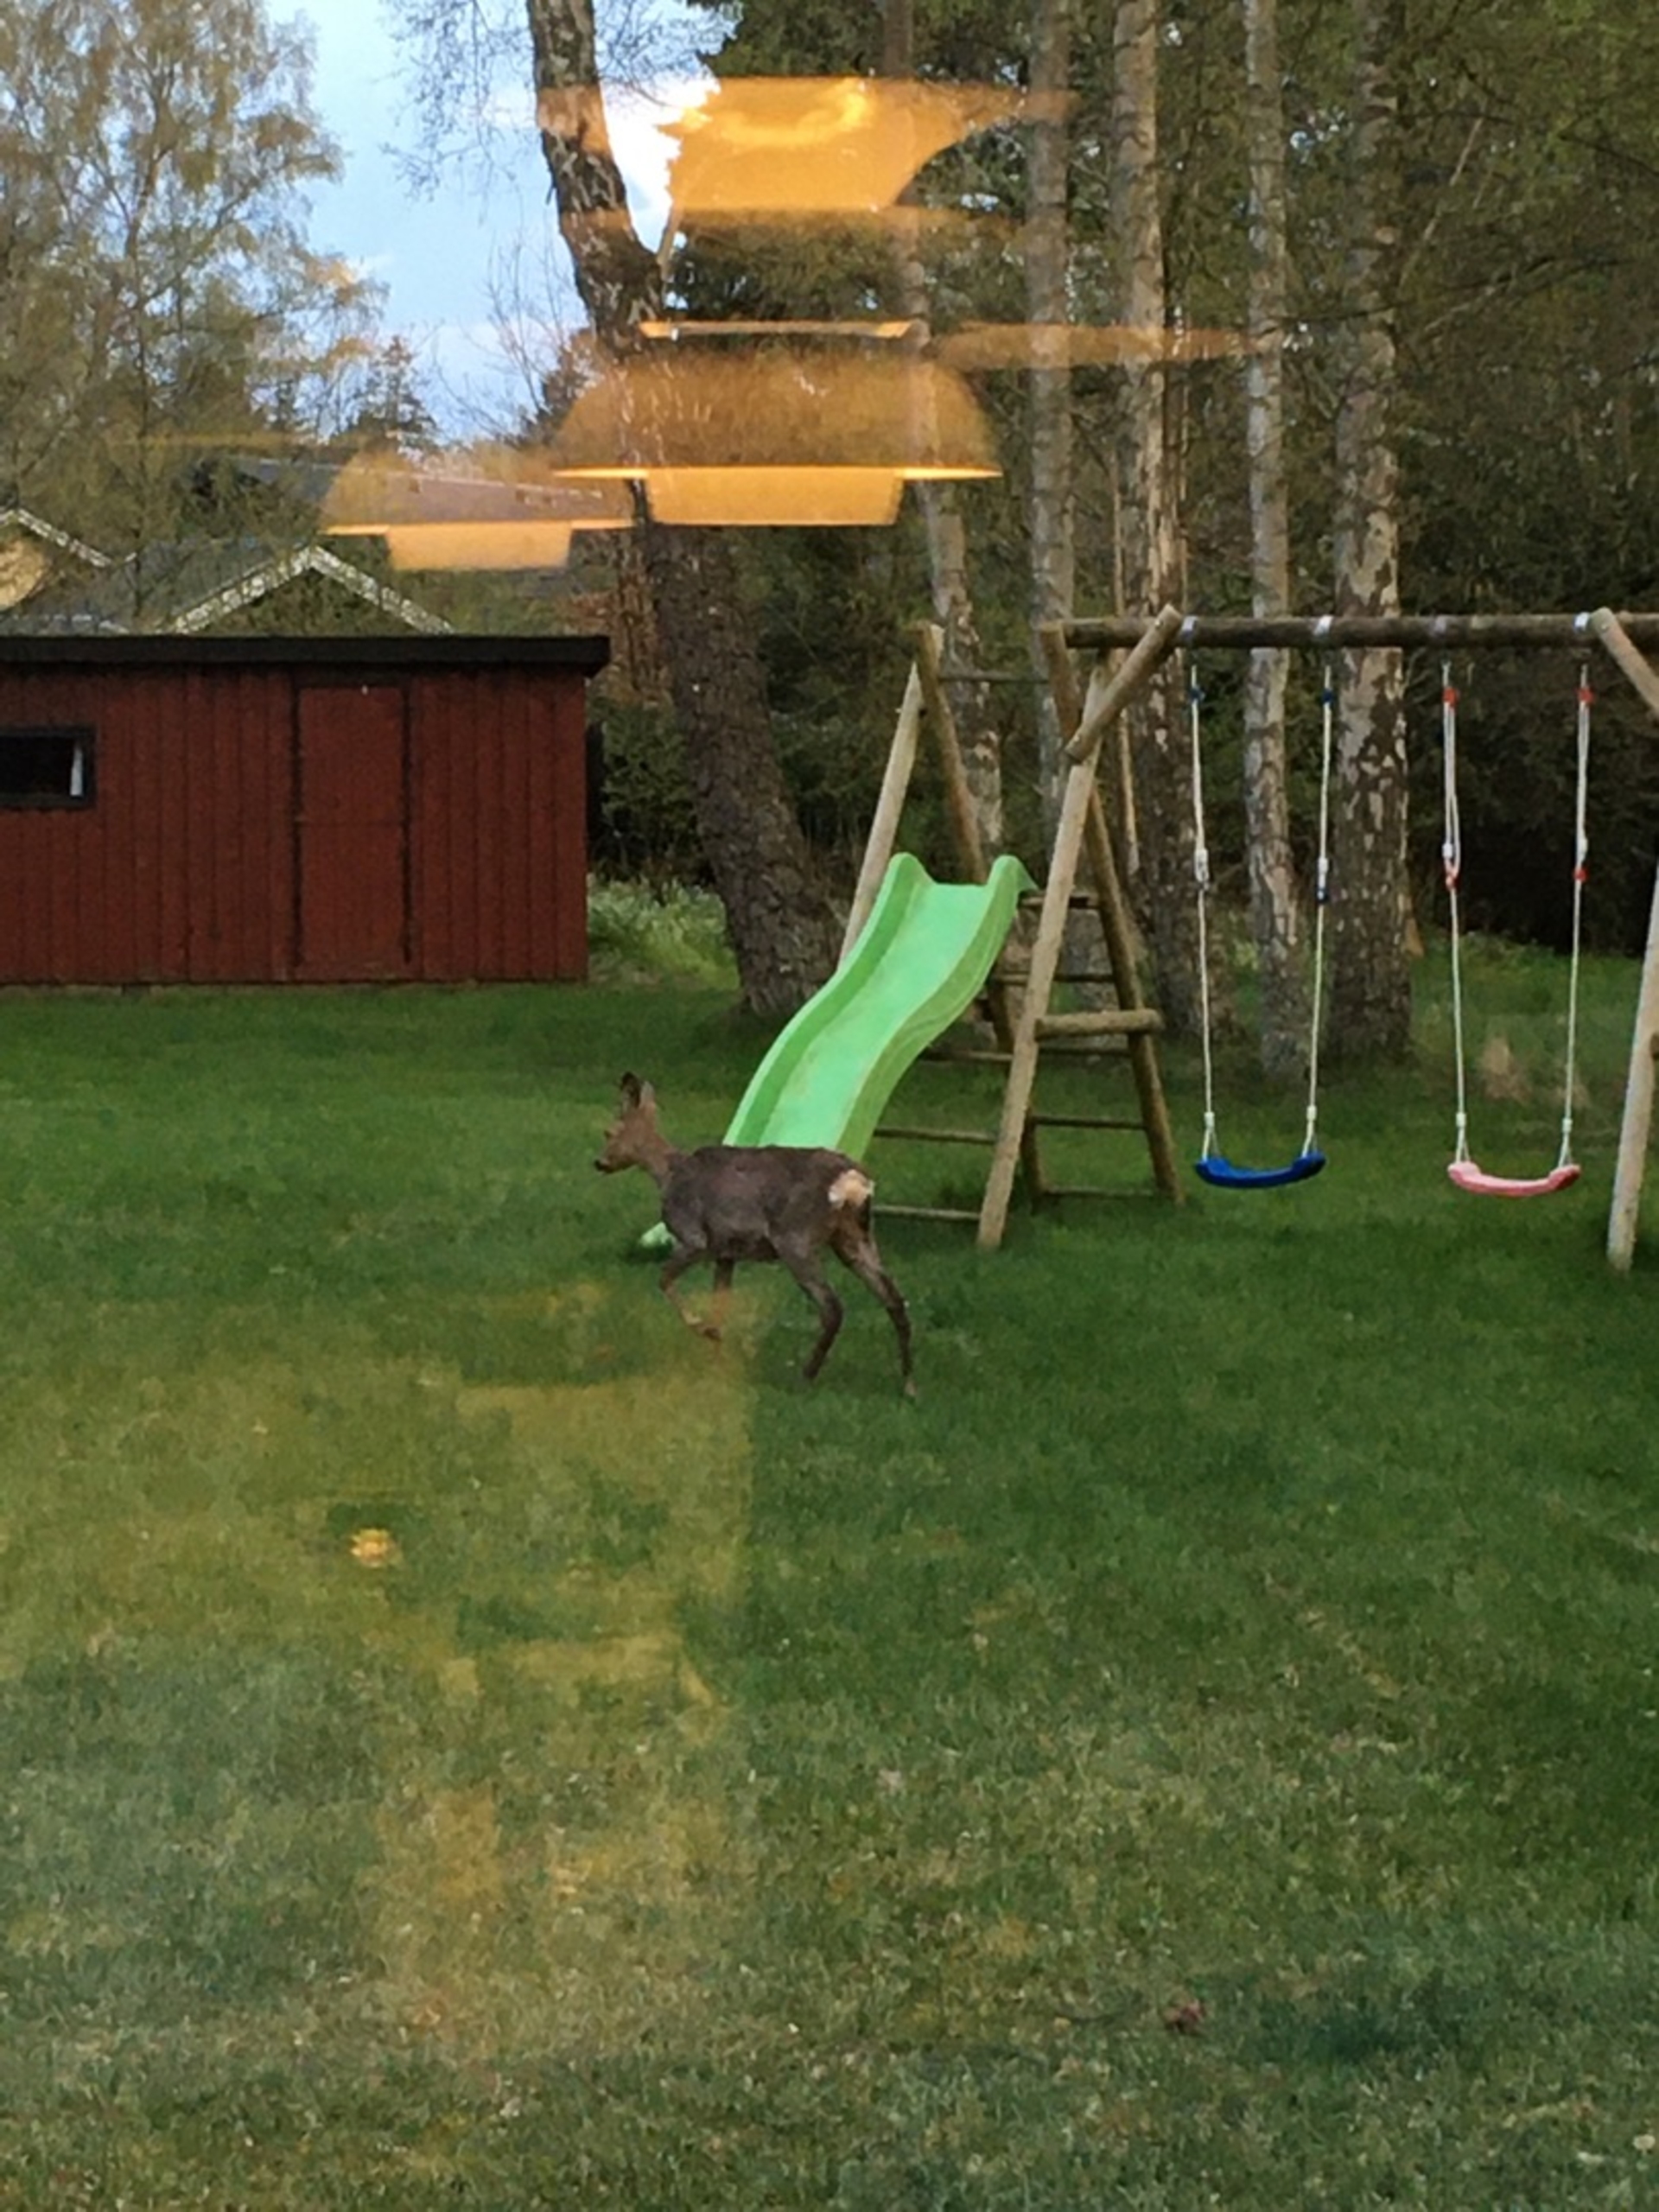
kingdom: Animalia
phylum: Chordata
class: Mammalia
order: Artiodactyla
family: Cervidae
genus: Capreolus
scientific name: Capreolus capreolus
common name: Rådyr
